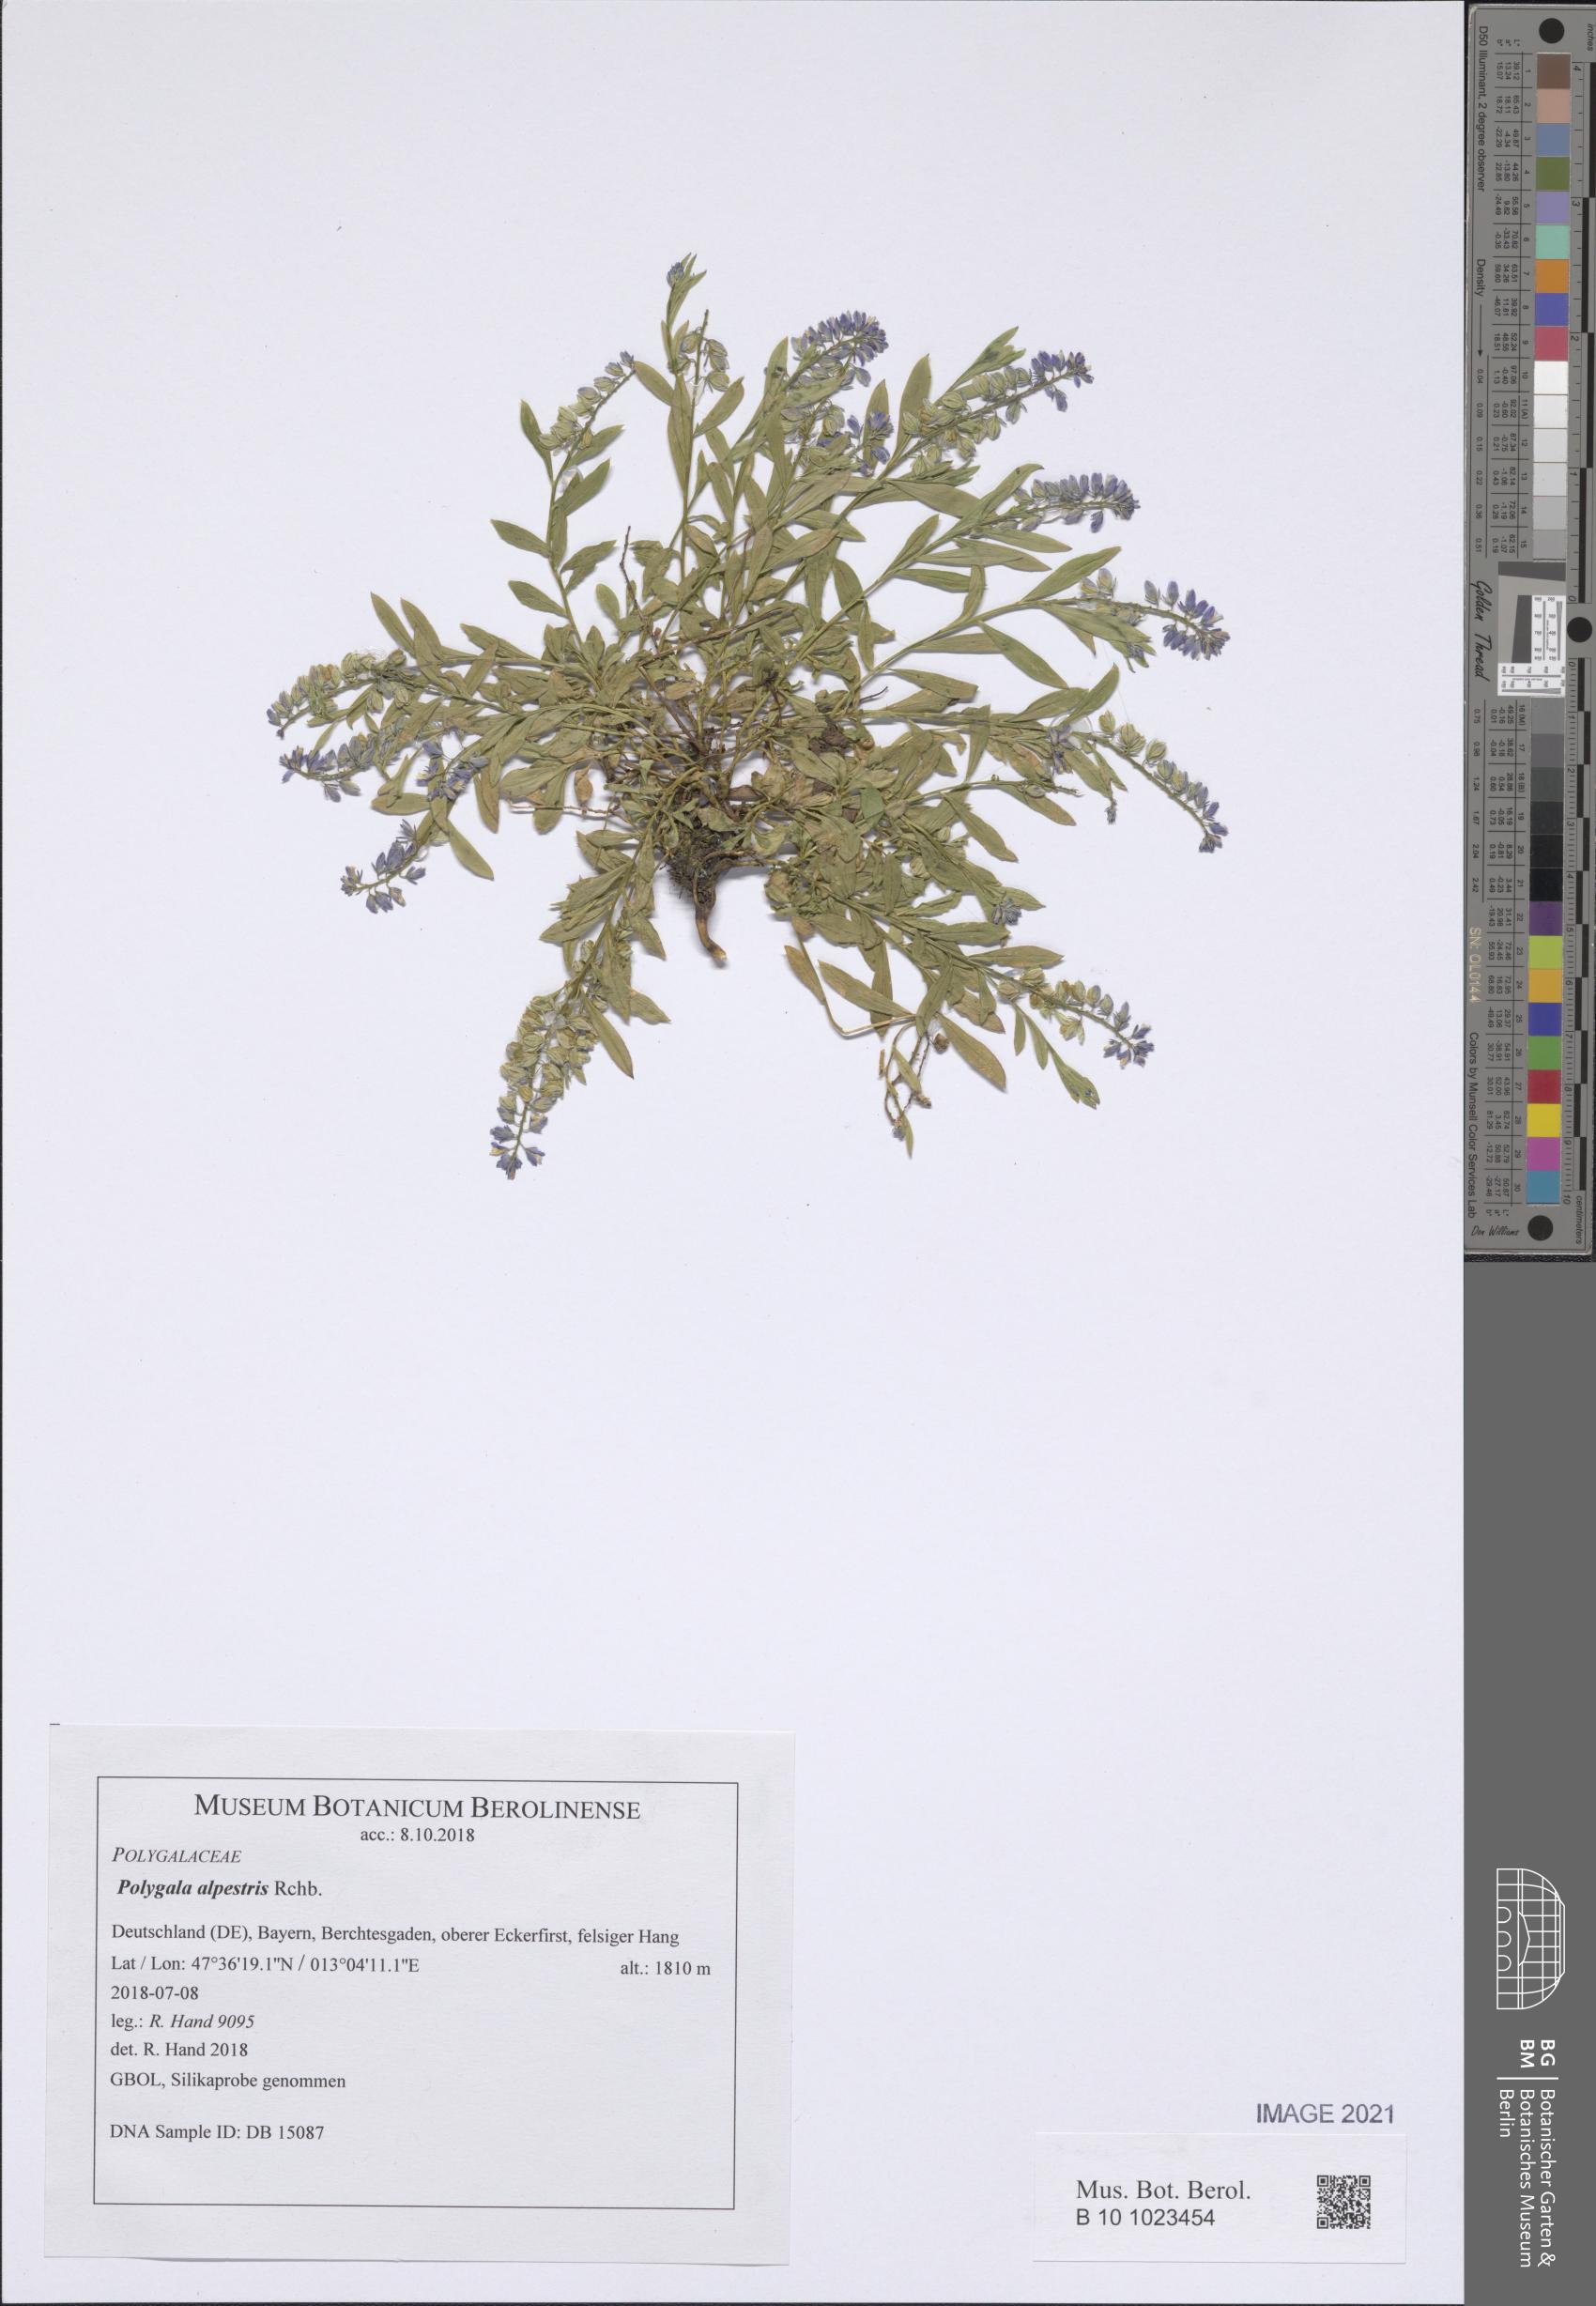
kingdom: Plantae
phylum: Tracheophyta
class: Magnoliopsida
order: Fabales
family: Polygalaceae
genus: Polygala
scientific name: Polygala alpestris
